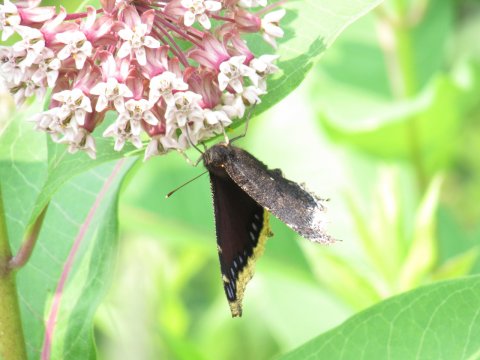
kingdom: Animalia
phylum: Arthropoda
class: Insecta
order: Lepidoptera
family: Nymphalidae
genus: Nymphalis
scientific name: Nymphalis antiopa
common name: Mourning Cloak
